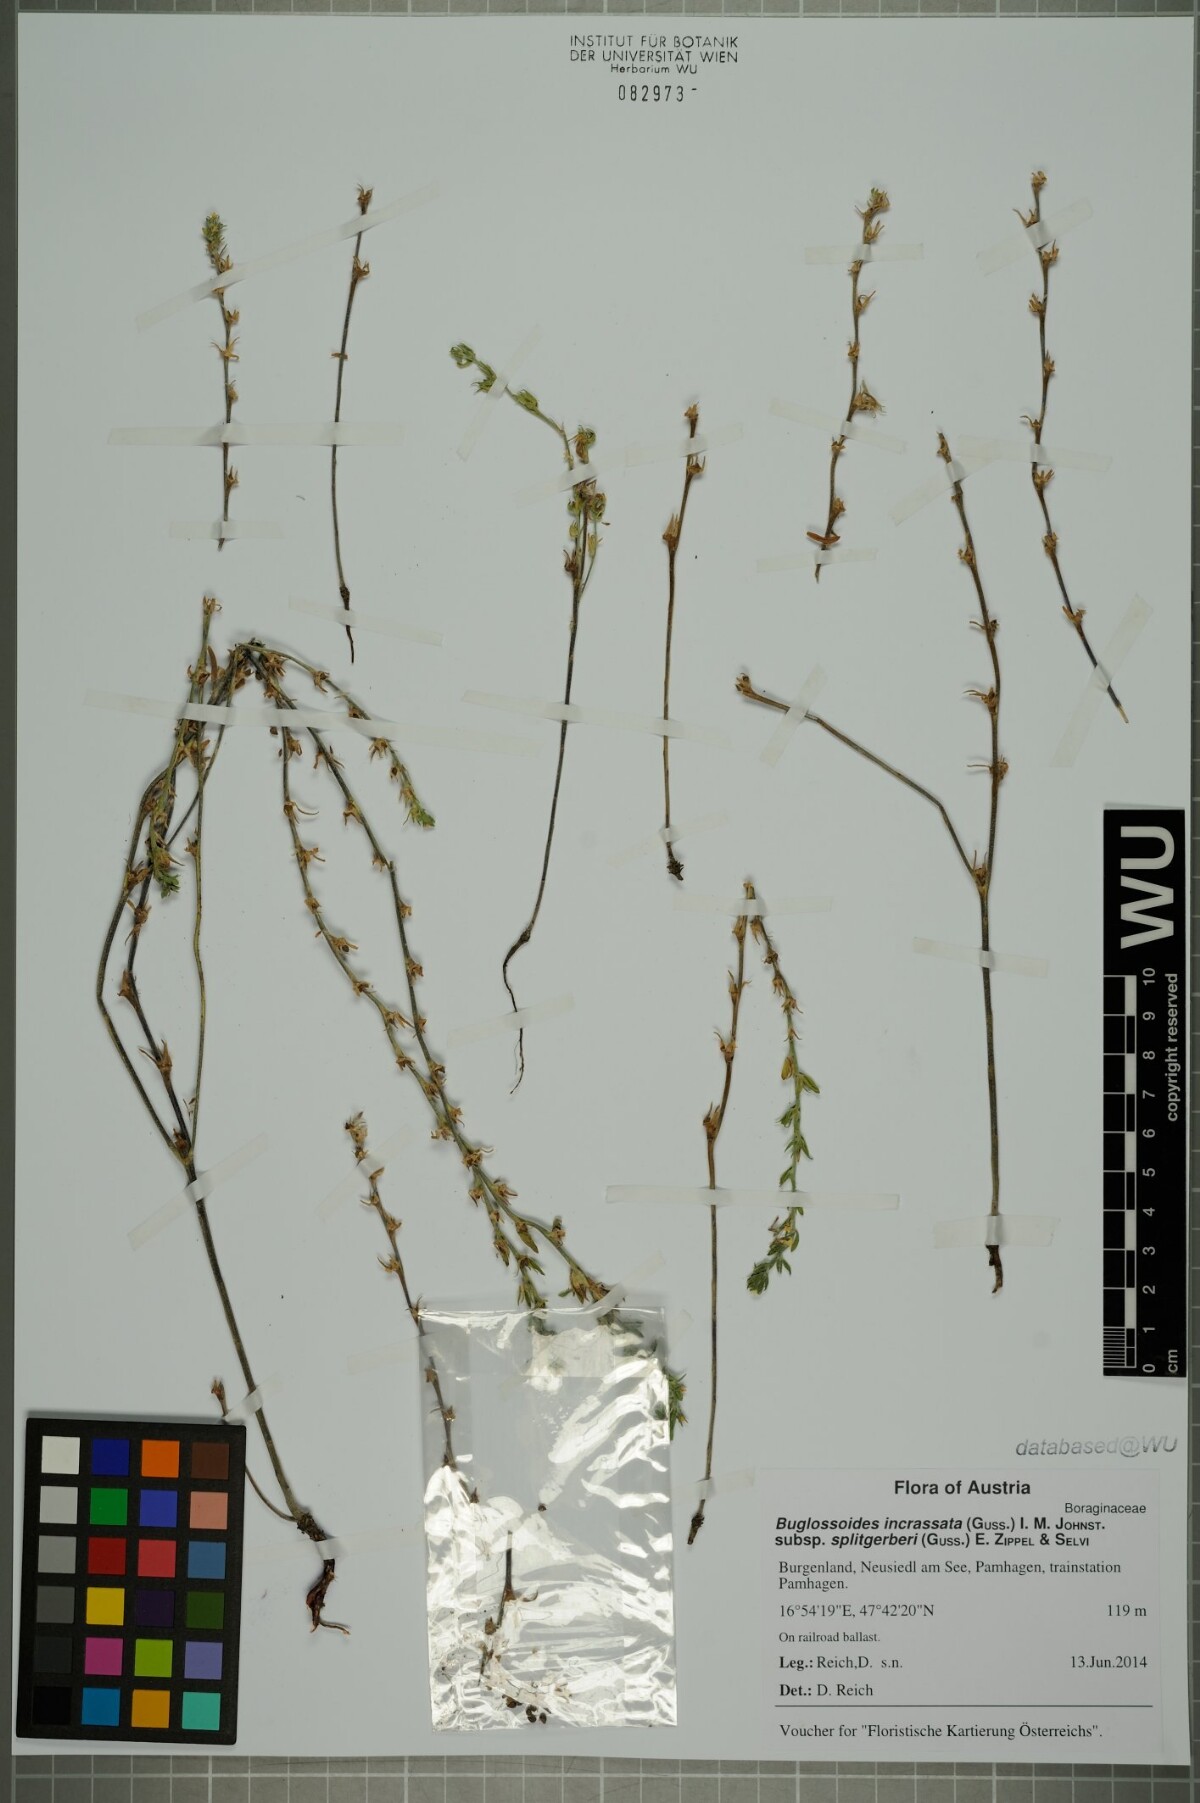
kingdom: Plantae
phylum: Tracheophyta
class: Magnoliopsida
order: Boraginales
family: Boraginaceae
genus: Buglossoides
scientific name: Buglossoides incrassata
